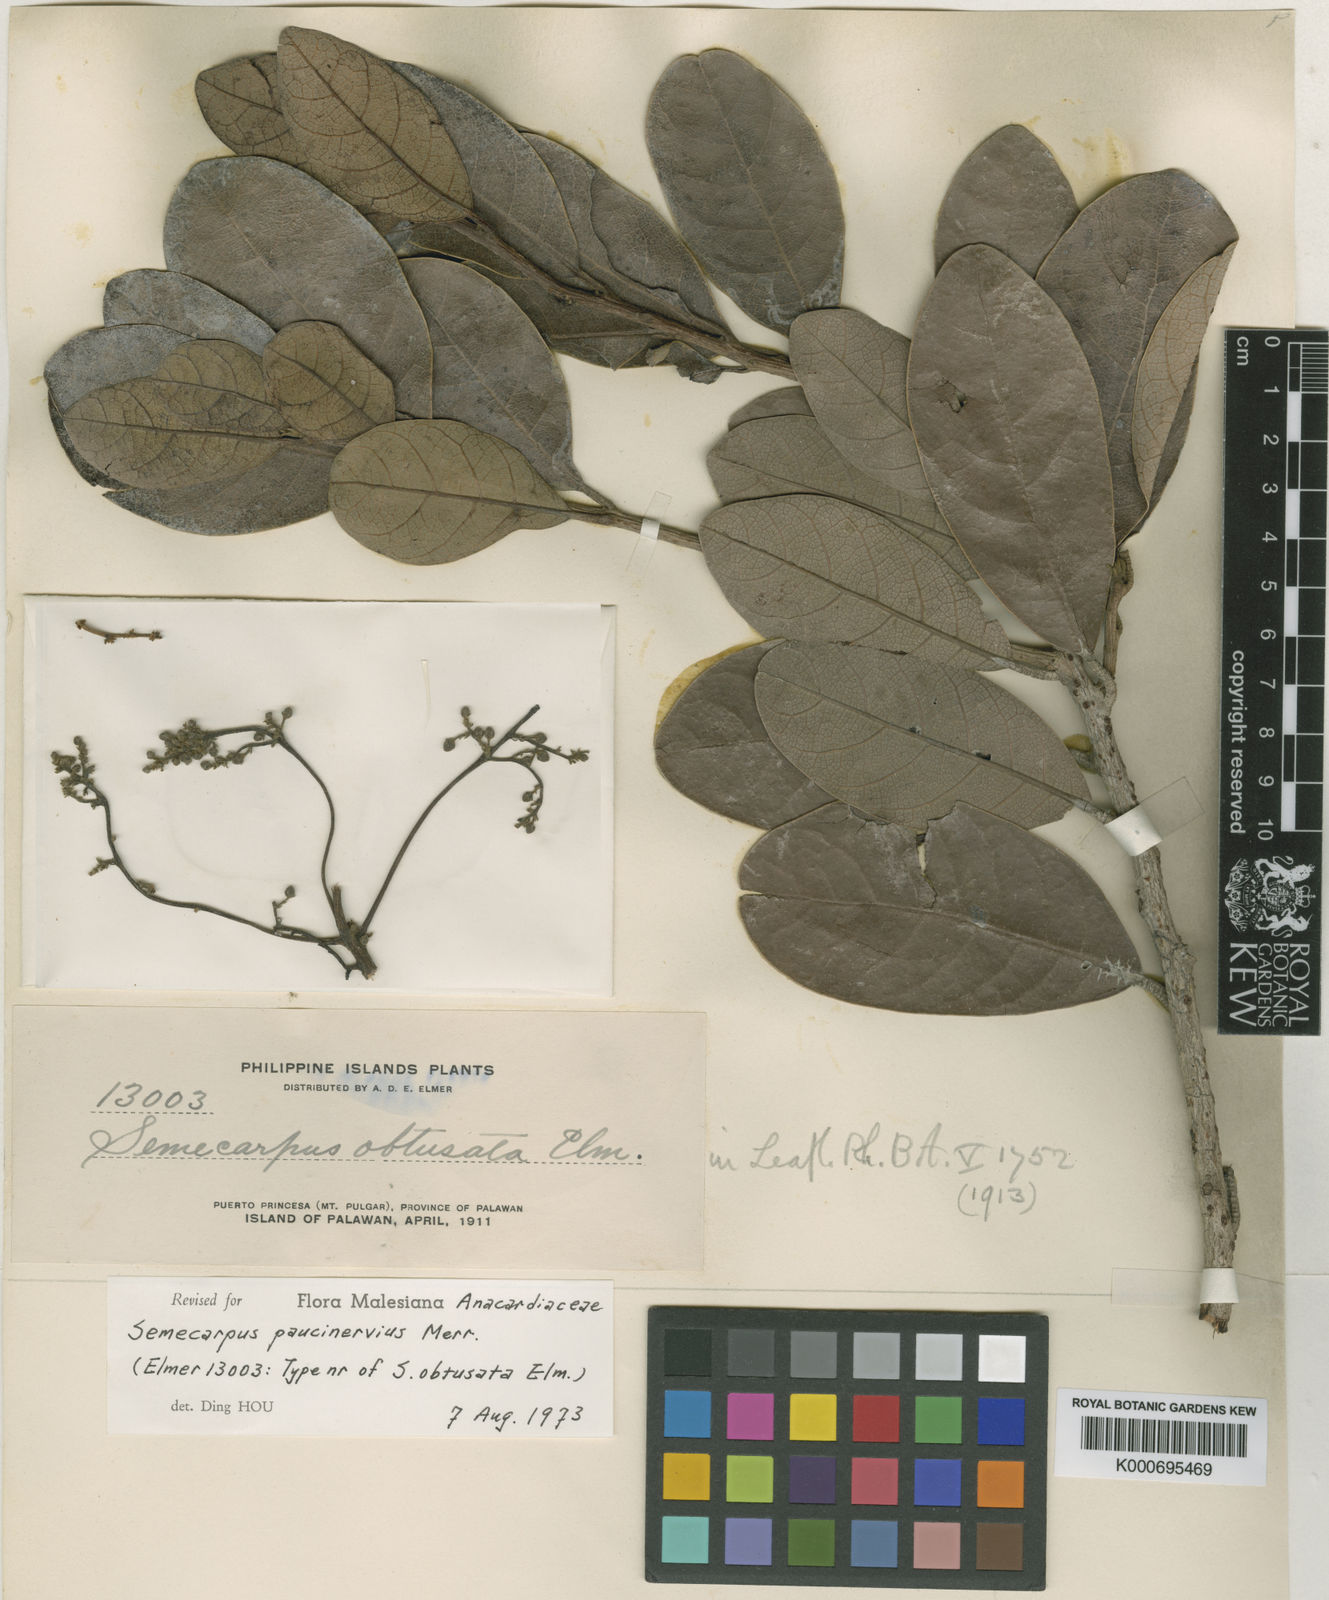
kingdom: Plantae
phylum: Tracheophyta
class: Magnoliopsida
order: Sapindales
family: Anacardiaceae
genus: Semecarpus
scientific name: Semecarpus paucinervius
